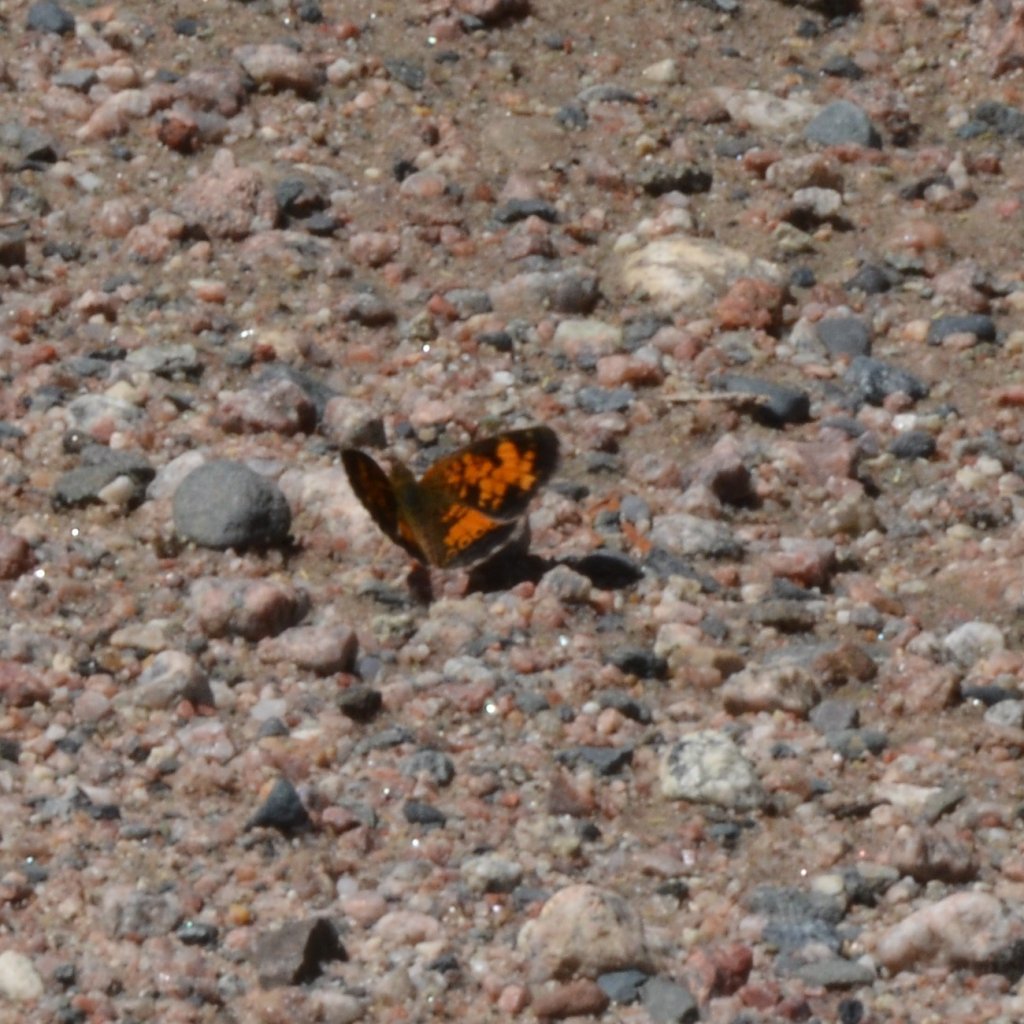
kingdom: Animalia
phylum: Arthropoda
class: Insecta
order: Lepidoptera
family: Nymphalidae
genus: Phyciodes
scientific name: Phyciodes tharos
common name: Northern Crescent
